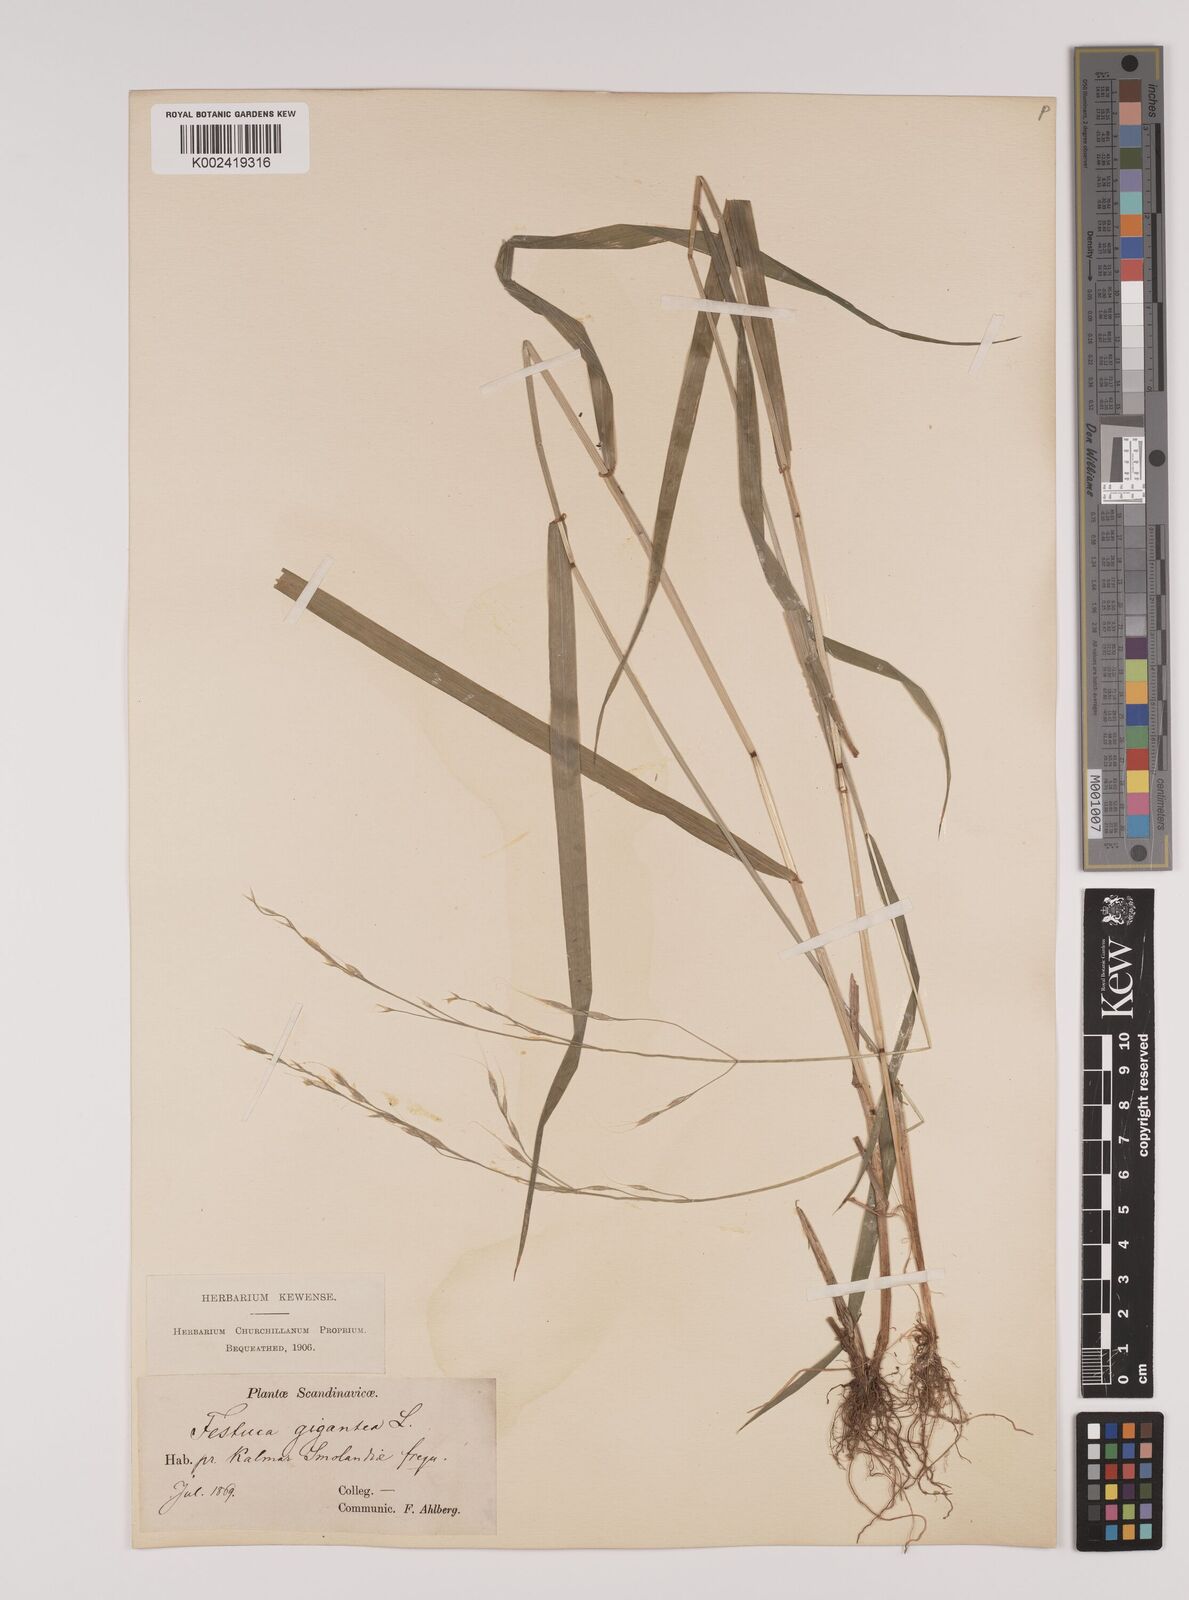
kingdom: Plantae
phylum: Tracheophyta
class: Liliopsida
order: Poales
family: Poaceae
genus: Lolium
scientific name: Lolium giganteum
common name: Giant fescue
